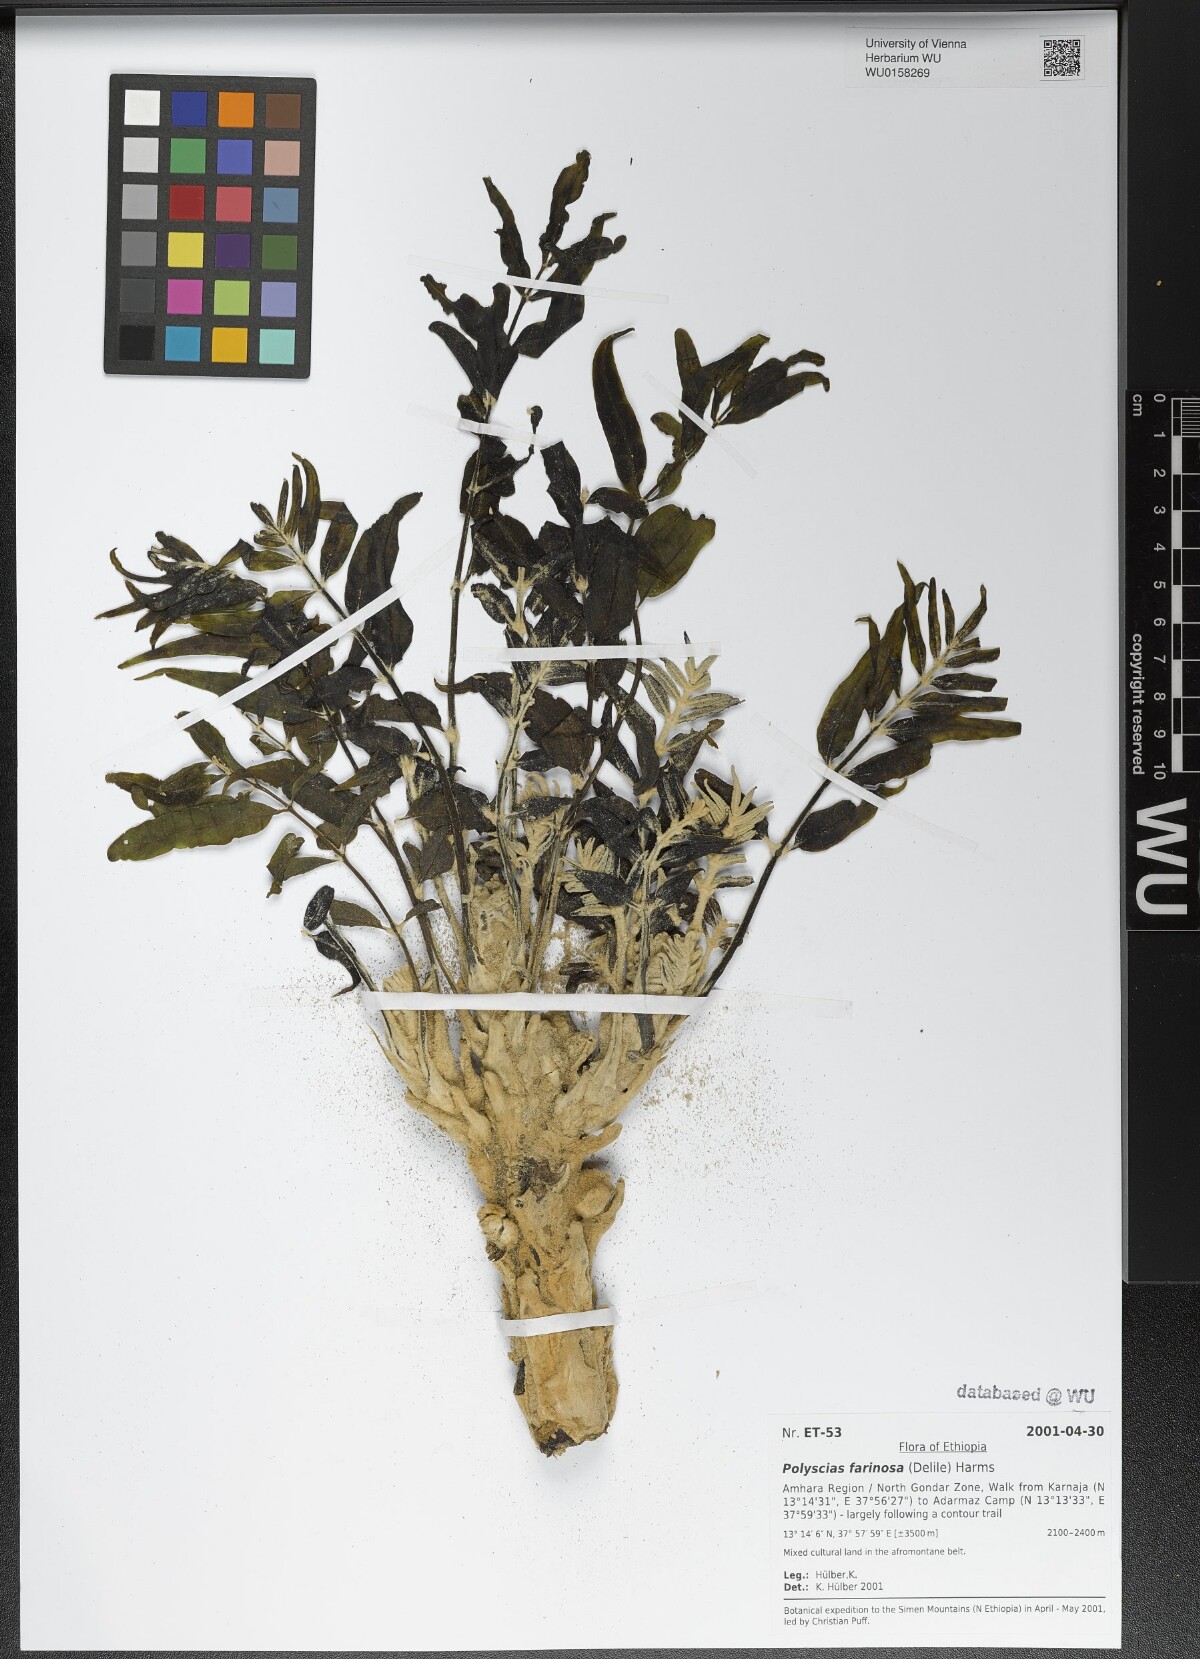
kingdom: Plantae
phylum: Tracheophyta
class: Magnoliopsida
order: Apiales
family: Araliaceae
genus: Polyscias
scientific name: Polyscias farinosa
